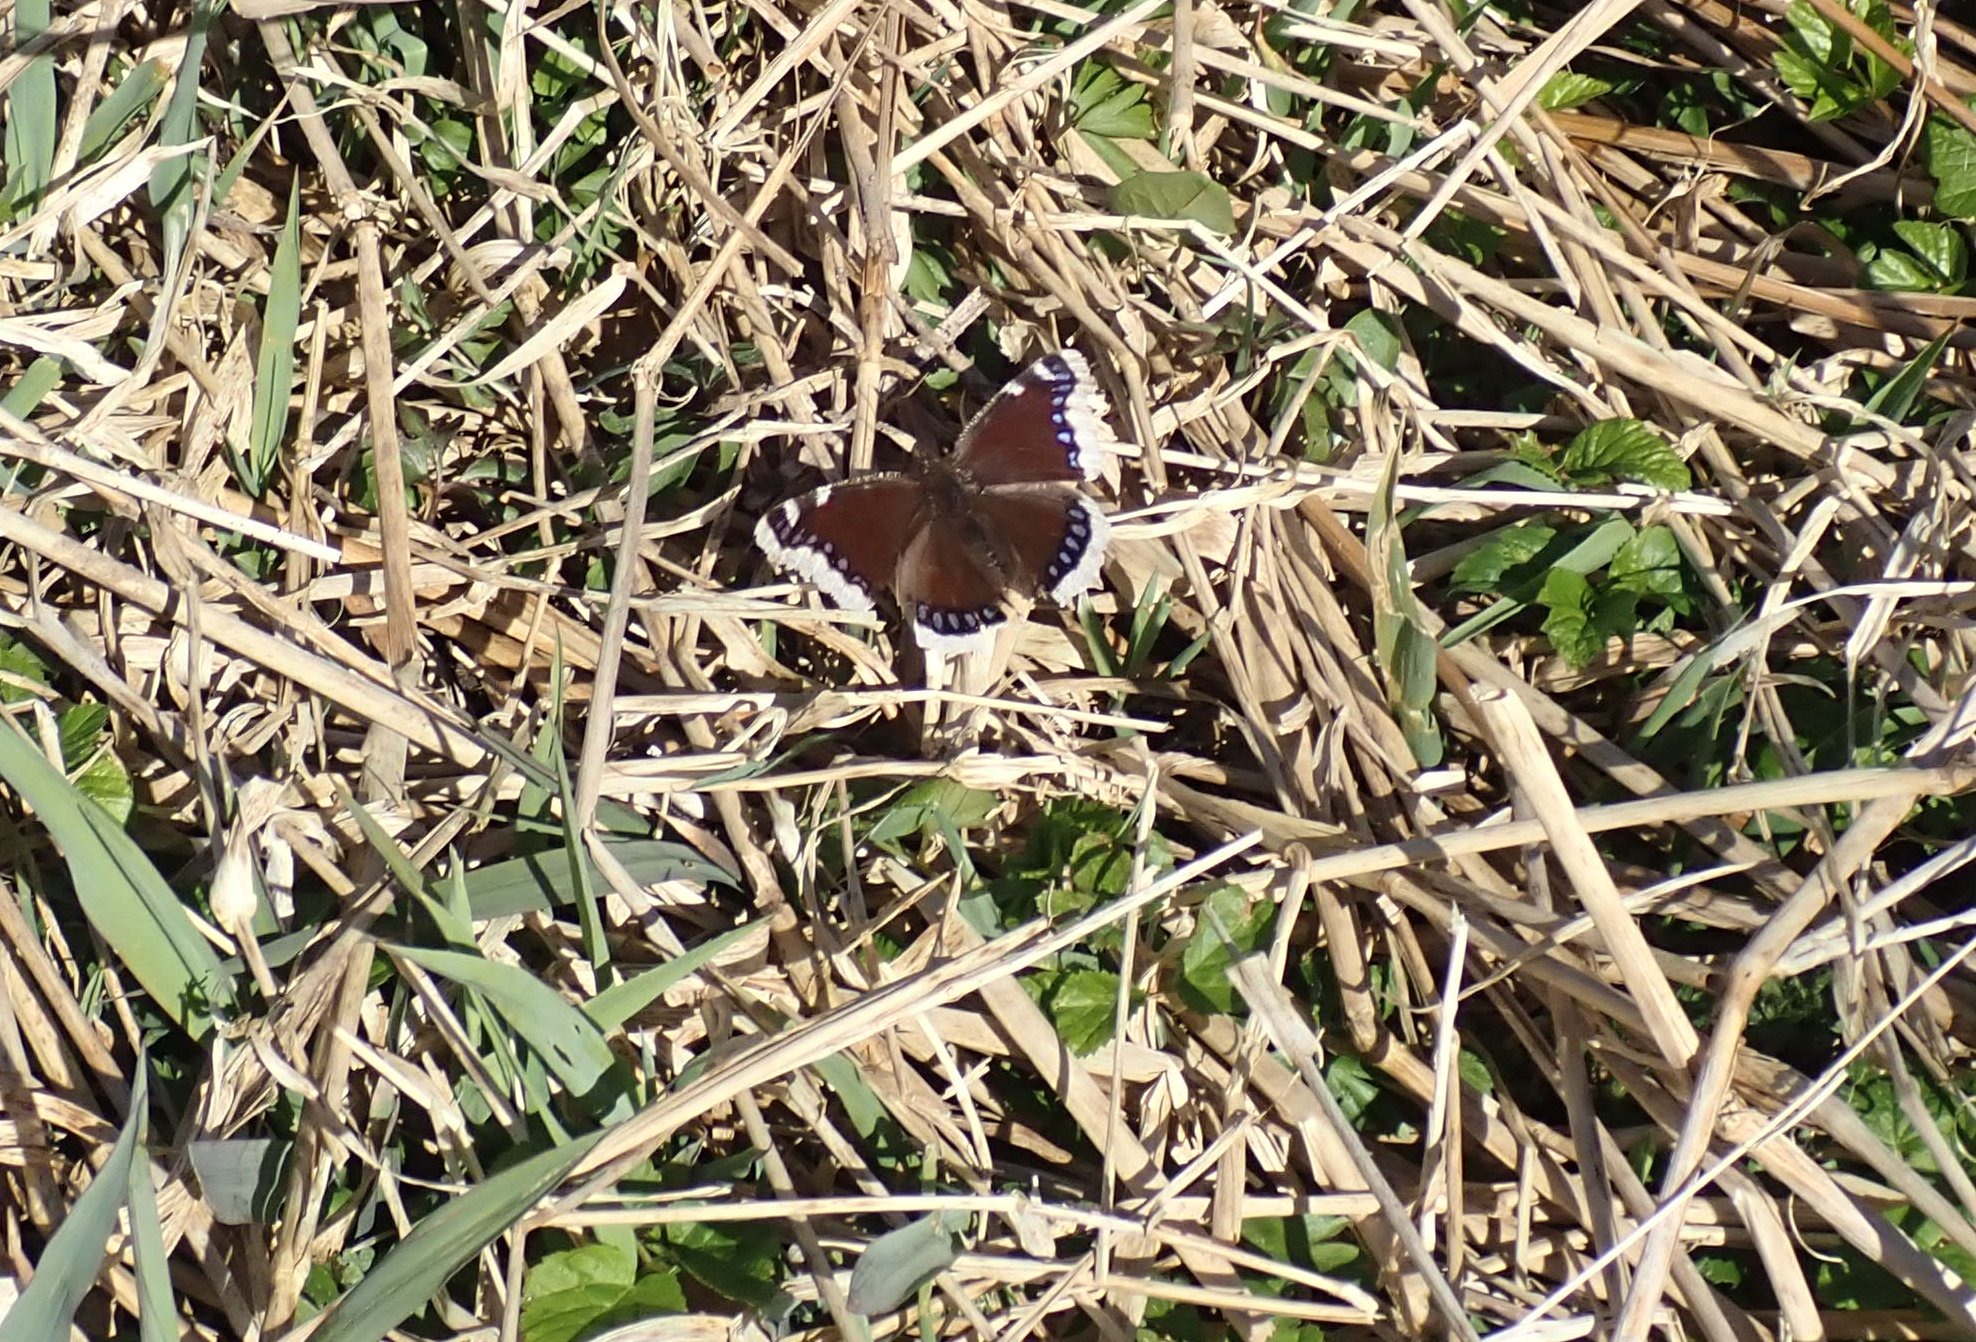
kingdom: Animalia
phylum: Arthropoda
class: Insecta
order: Lepidoptera
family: Nymphalidae
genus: Nymphalis
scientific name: Nymphalis antiopa
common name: Sørgekåbe
